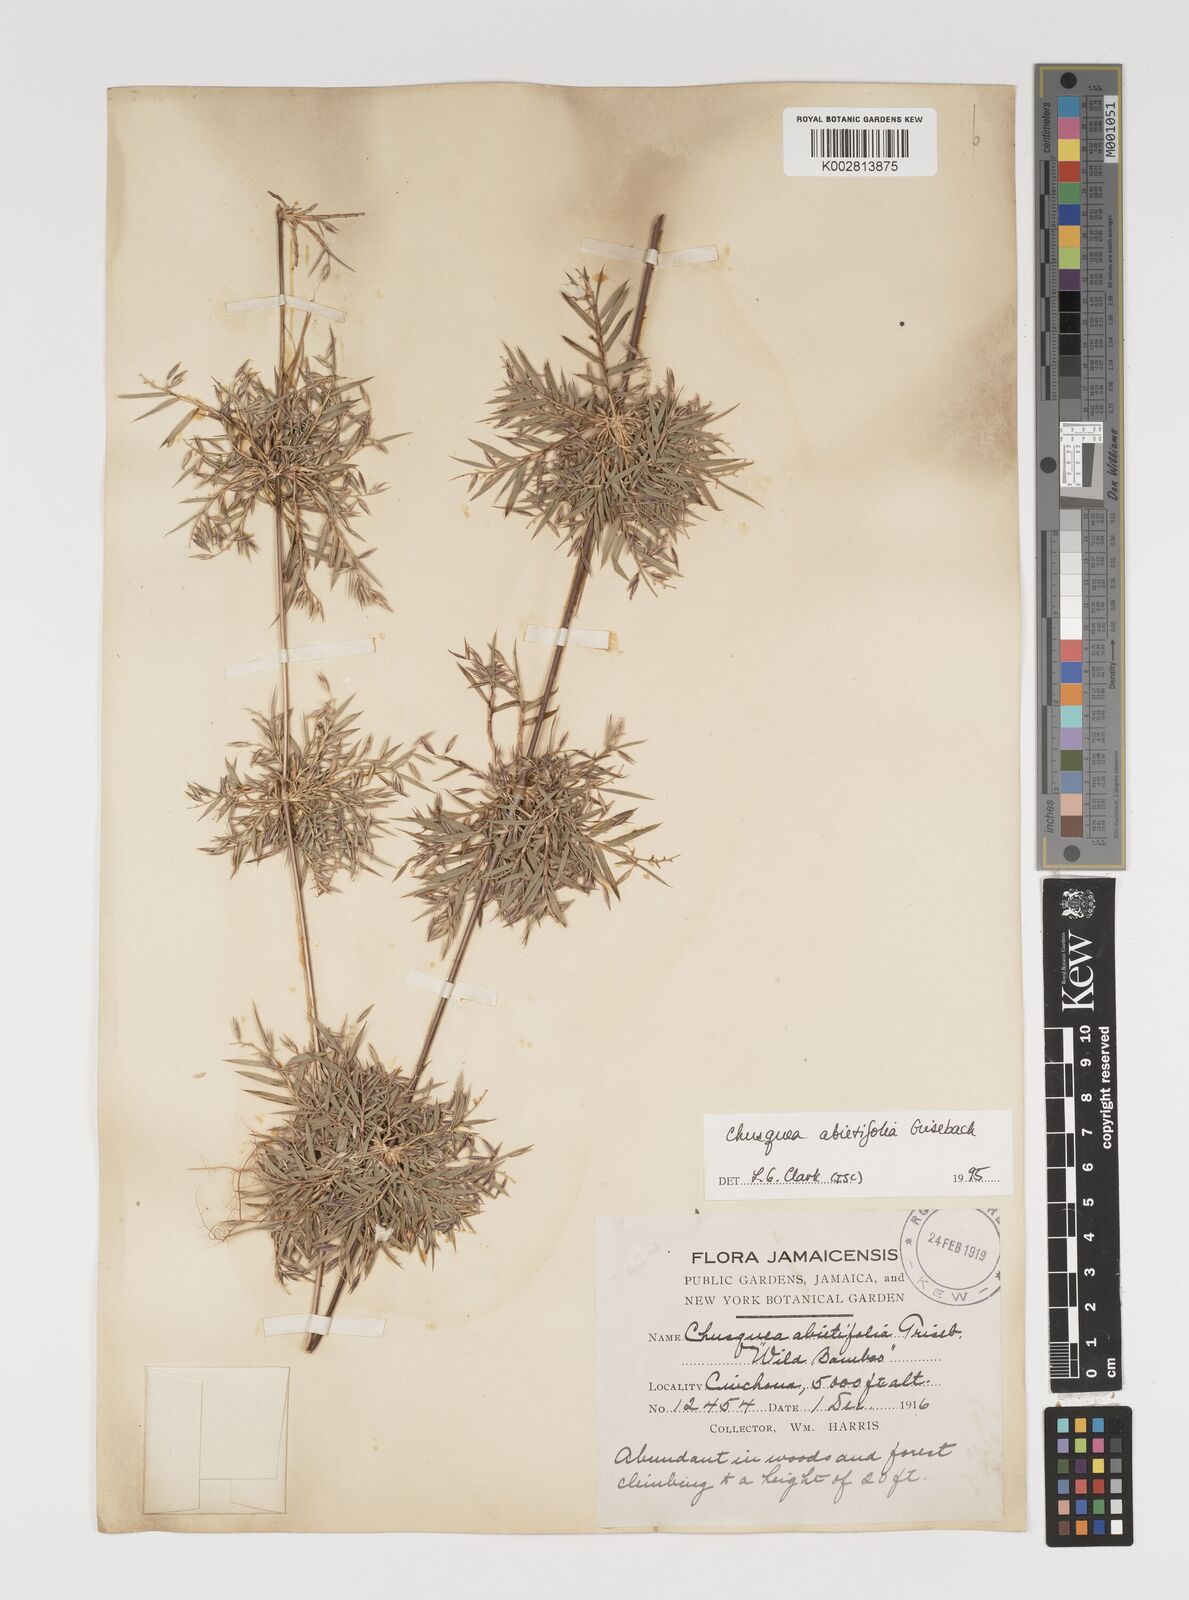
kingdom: Plantae
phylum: Tracheophyta
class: Liliopsida
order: Poales
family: Poaceae
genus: Chusquea
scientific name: Chusquea abietifolia
